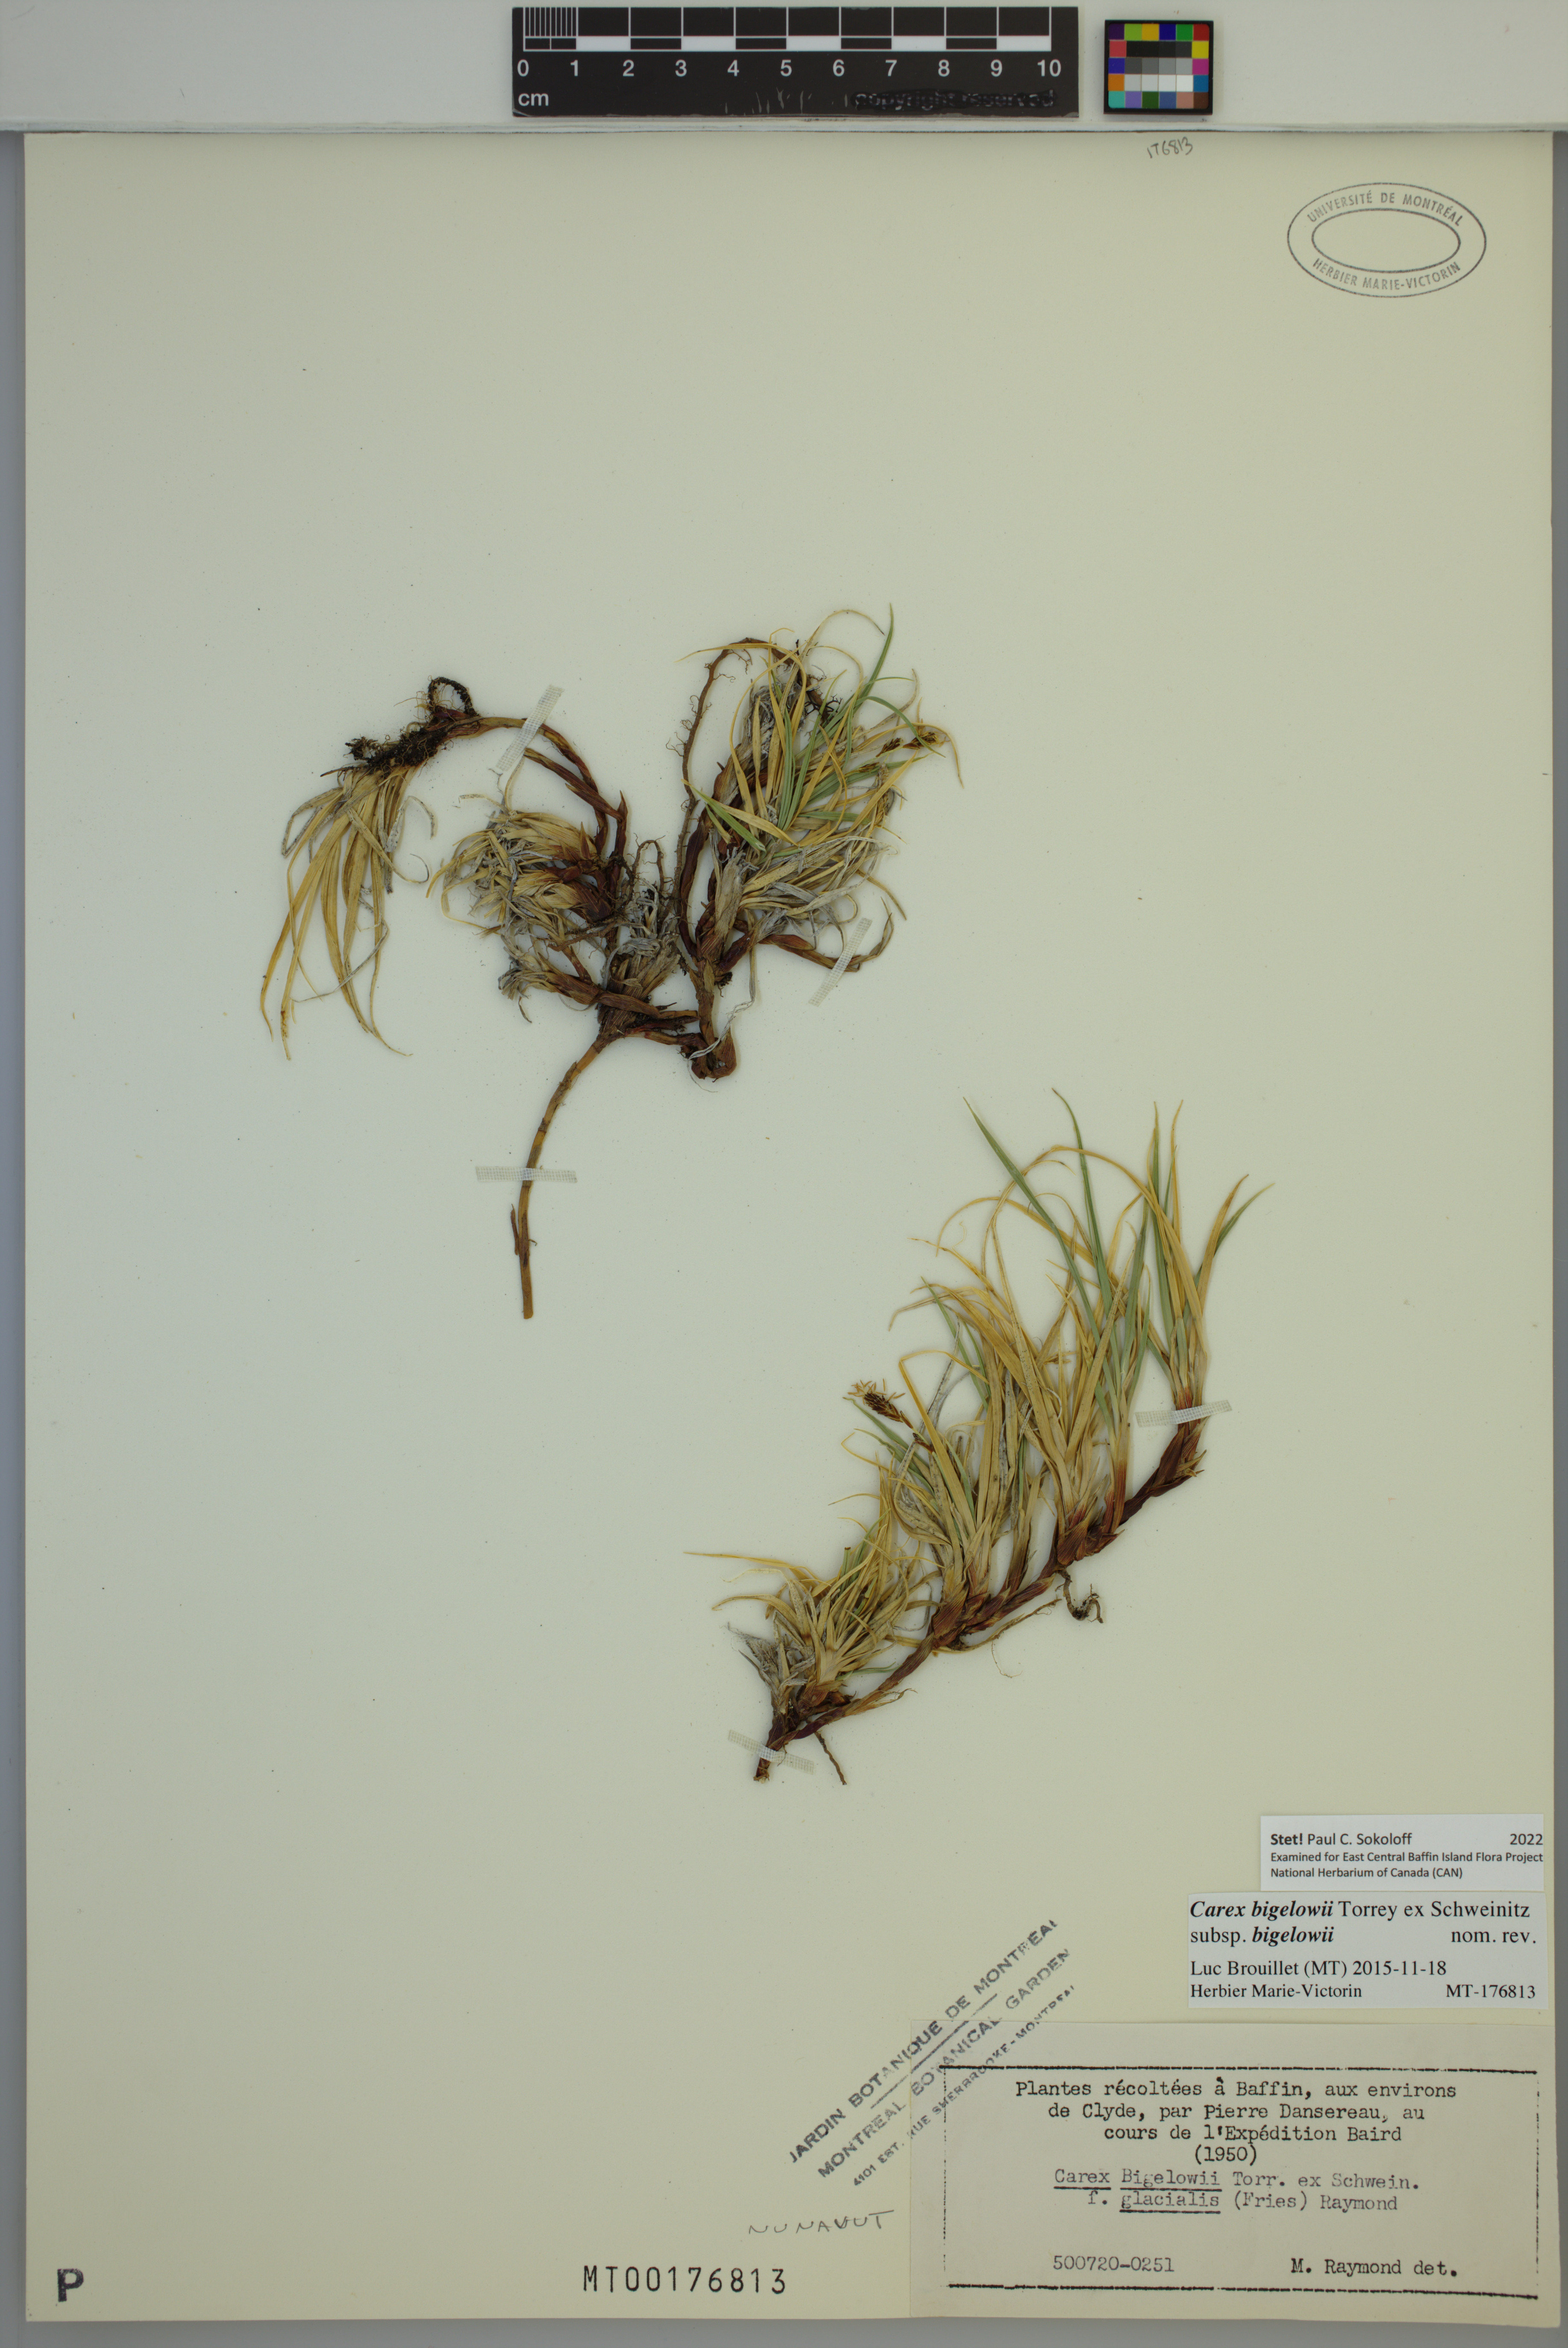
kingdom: Plantae
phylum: Tracheophyta
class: Liliopsida
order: Poales
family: Cyperaceae
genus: Carex
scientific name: Carex bigelowii
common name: Stiff sedge
